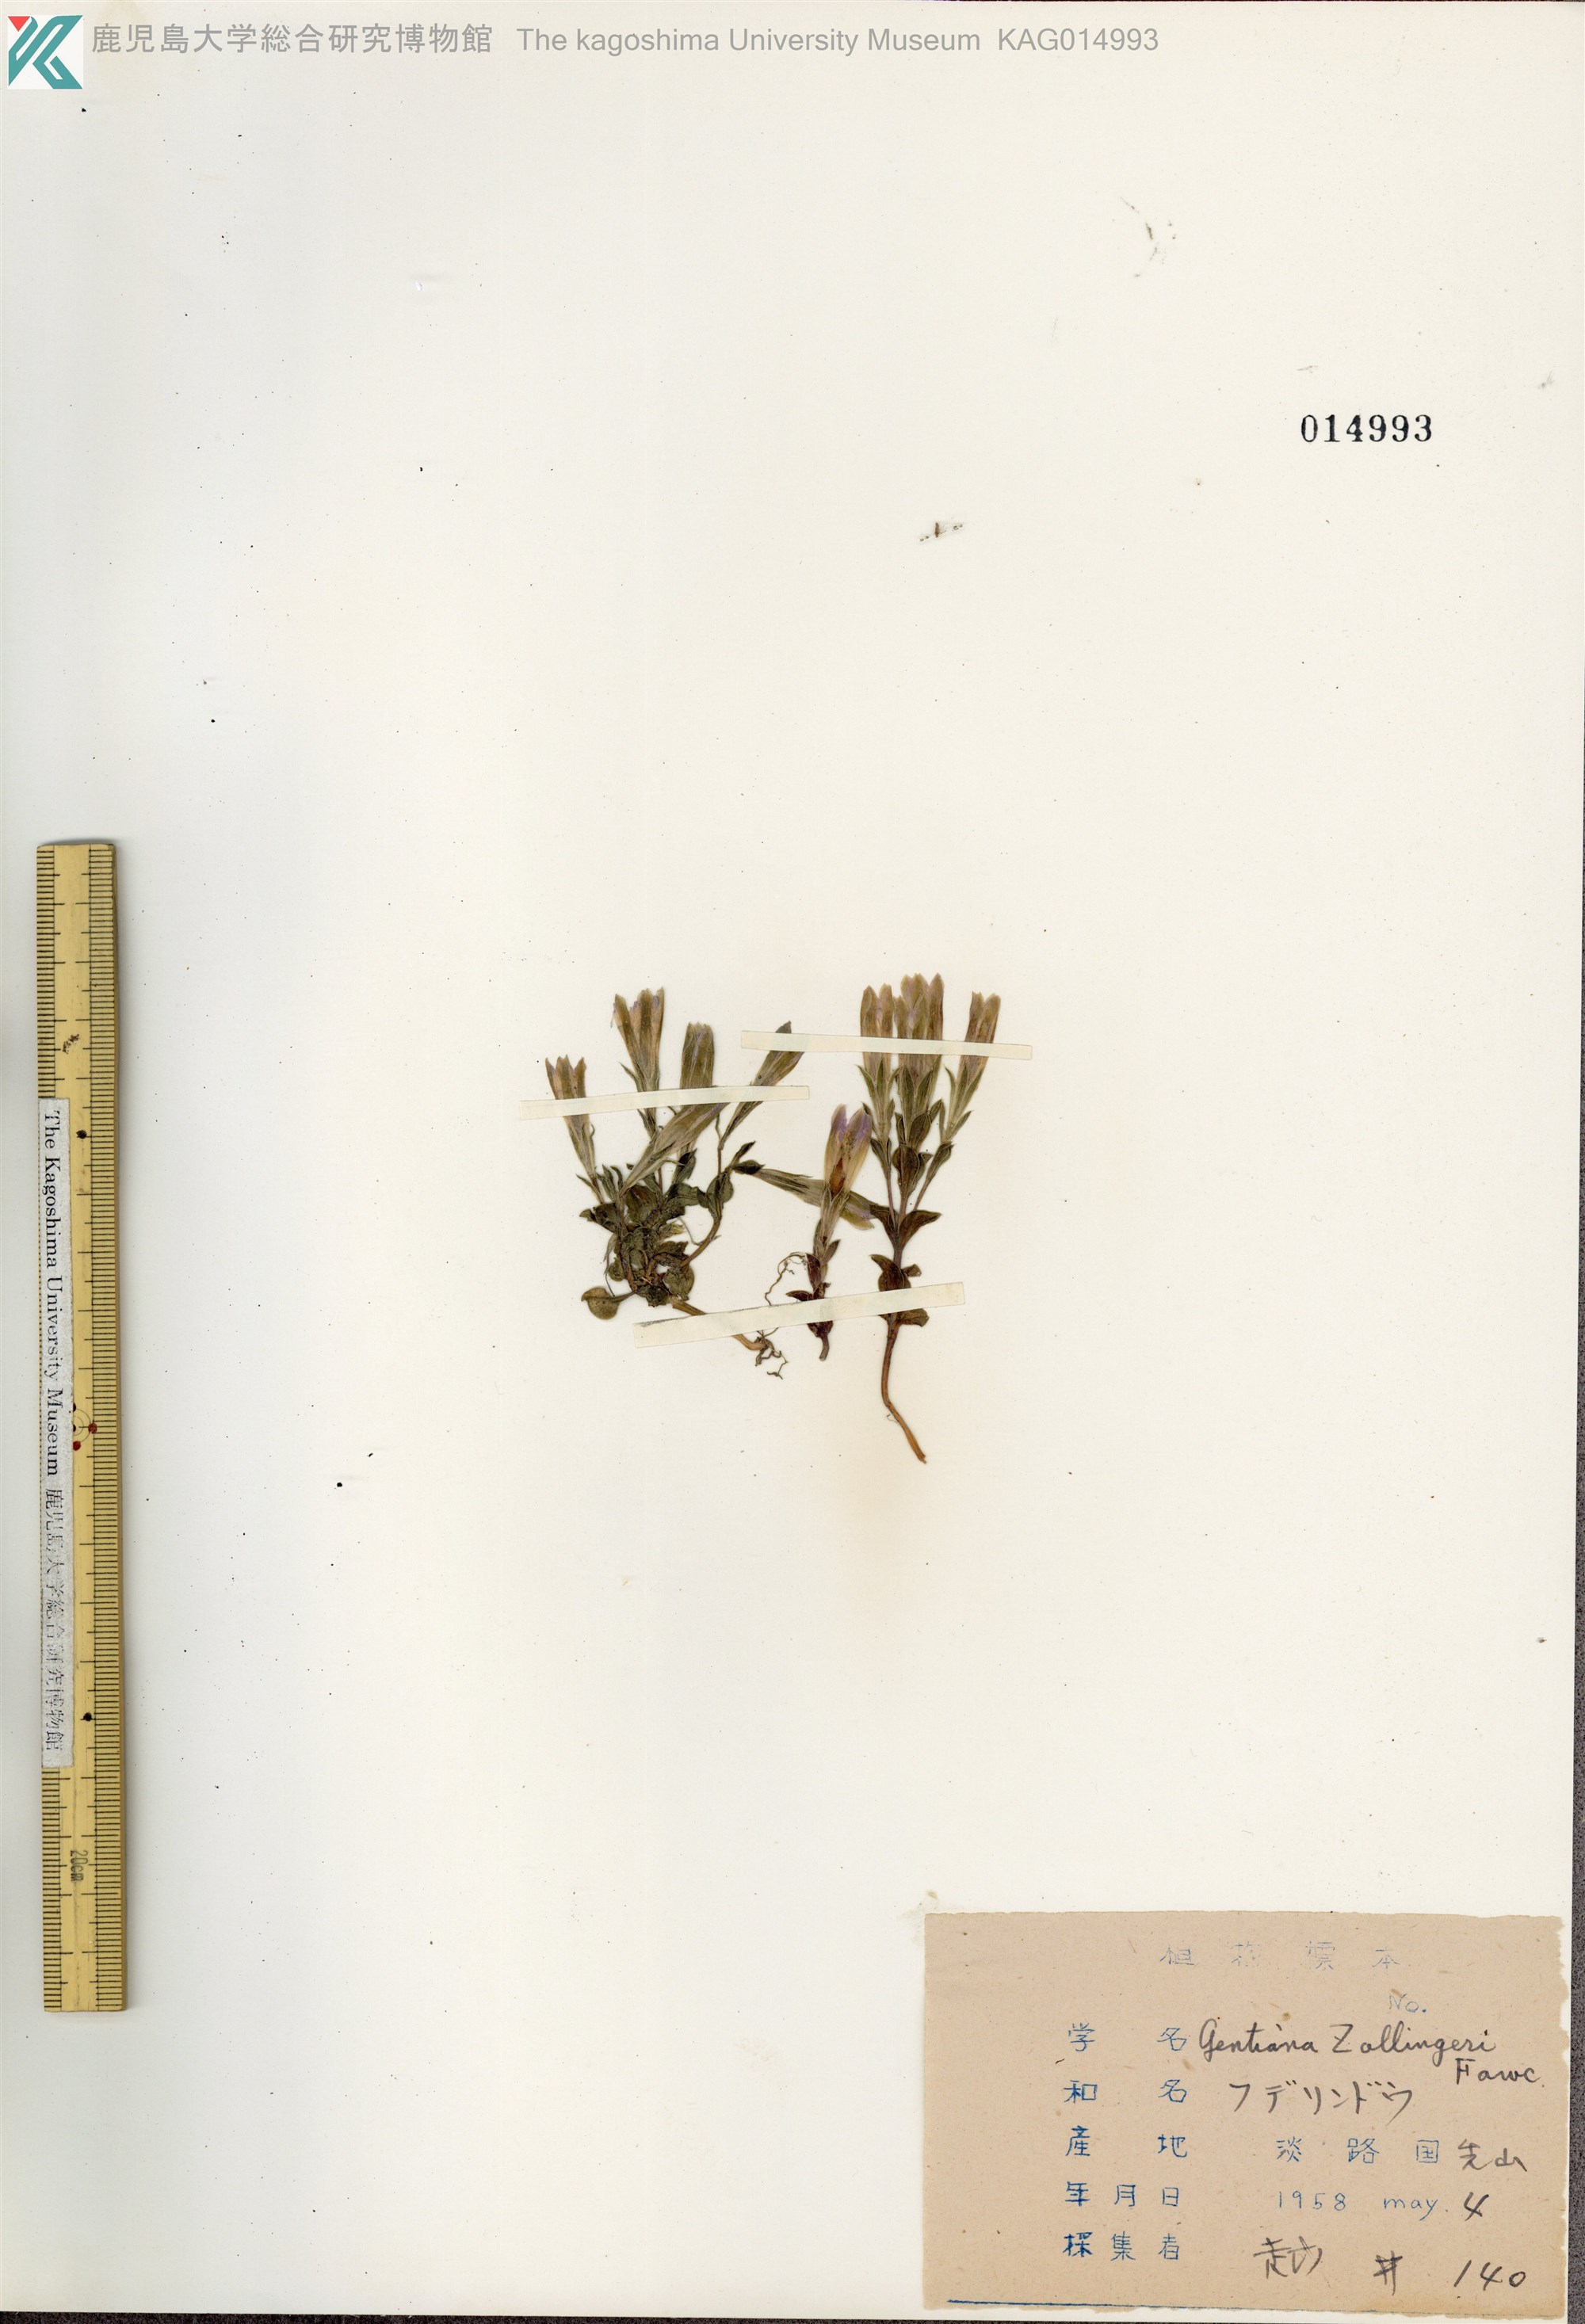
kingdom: Plantae
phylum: Tracheophyta
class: Magnoliopsida
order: Gentianales
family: Gentianaceae
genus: Gentiana
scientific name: Gentiana zollingeri
